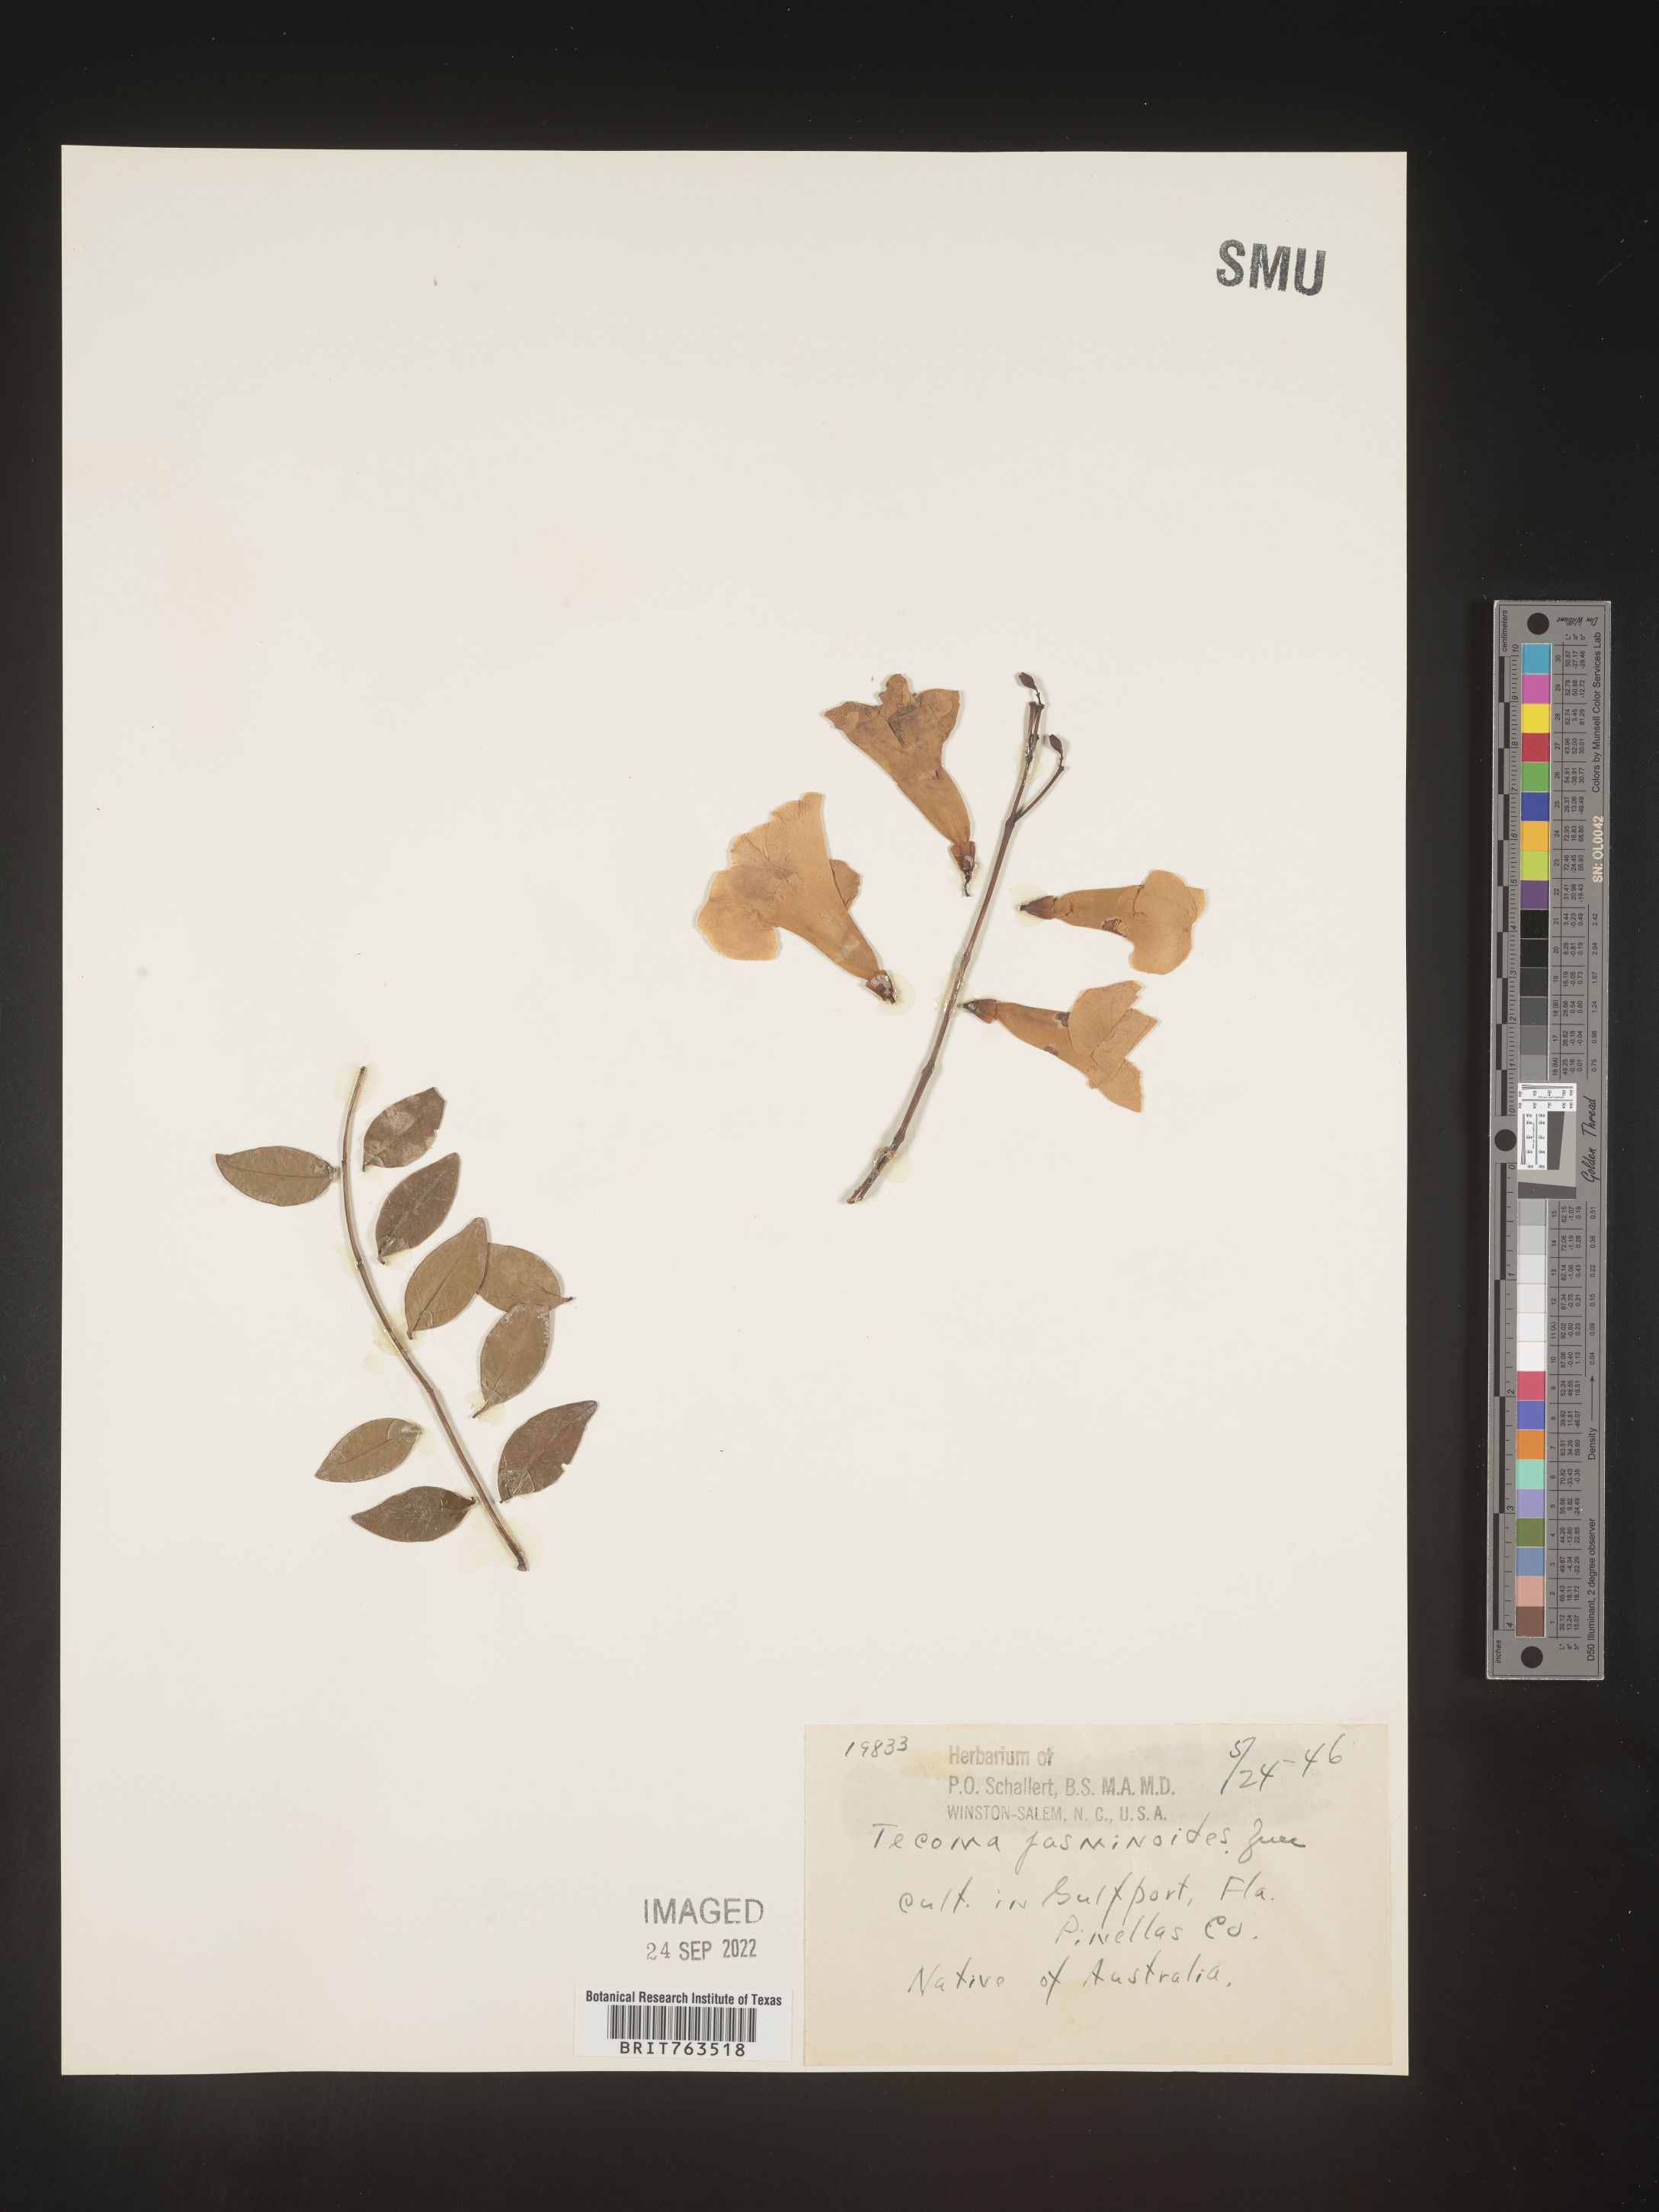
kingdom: Plantae
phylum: Tracheophyta
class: Magnoliopsida
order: Lamiales
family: Bignoniaceae
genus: Pandorea
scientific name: Pandorea
